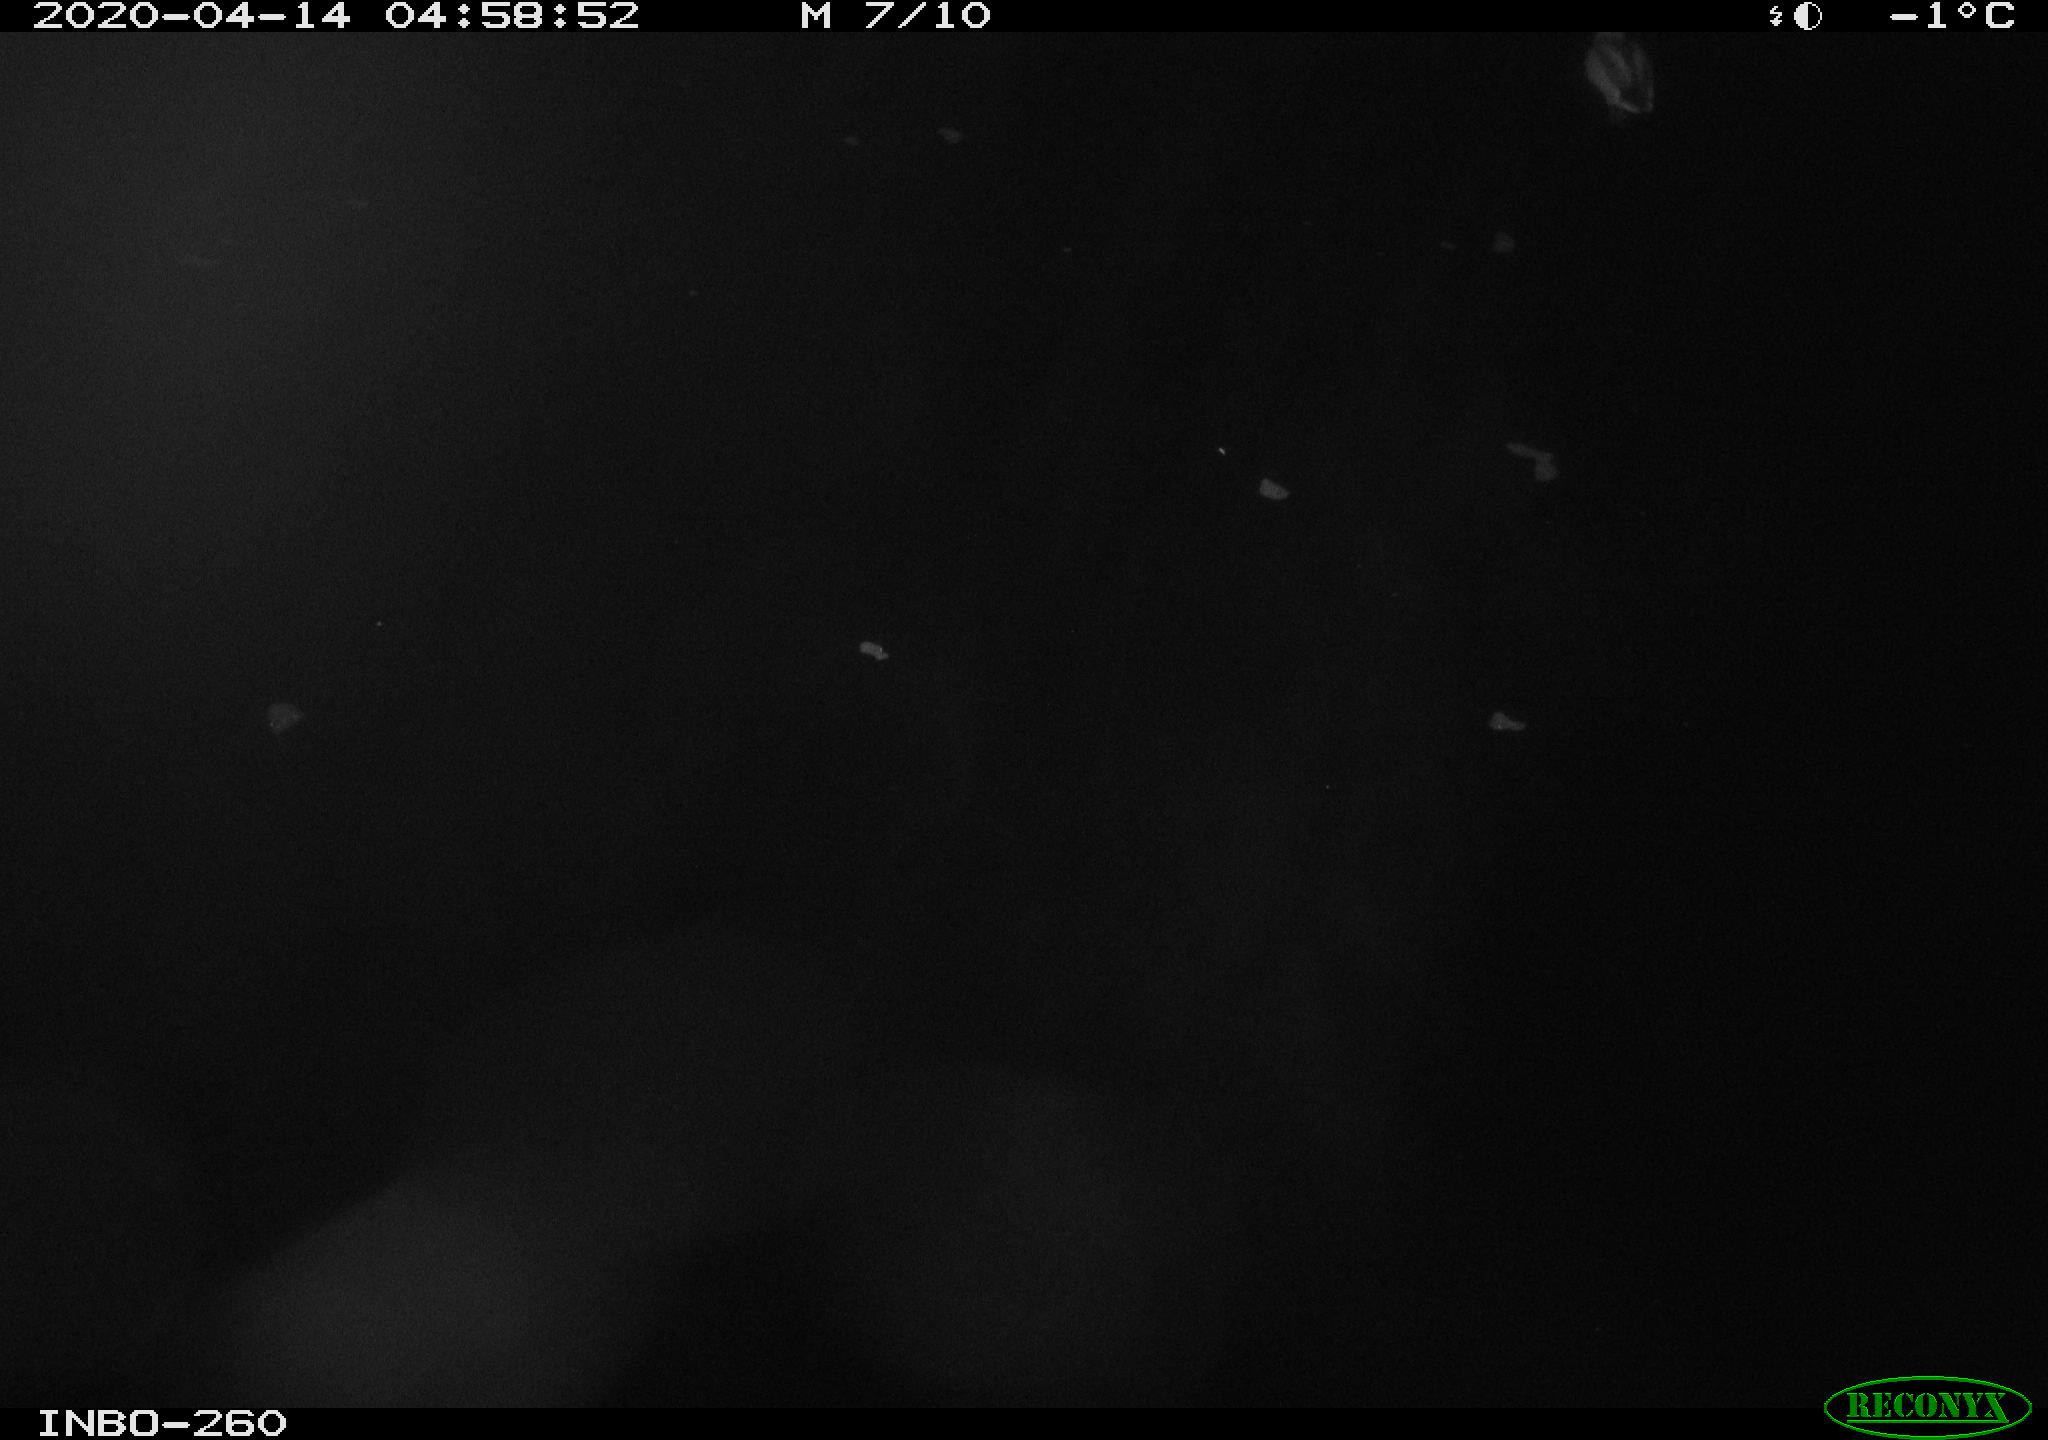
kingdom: Animalia
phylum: Chordata
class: Aves
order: Anseriformes
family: Anatidae
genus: Anas
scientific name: Anas platyrhynchos
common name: Mallard
